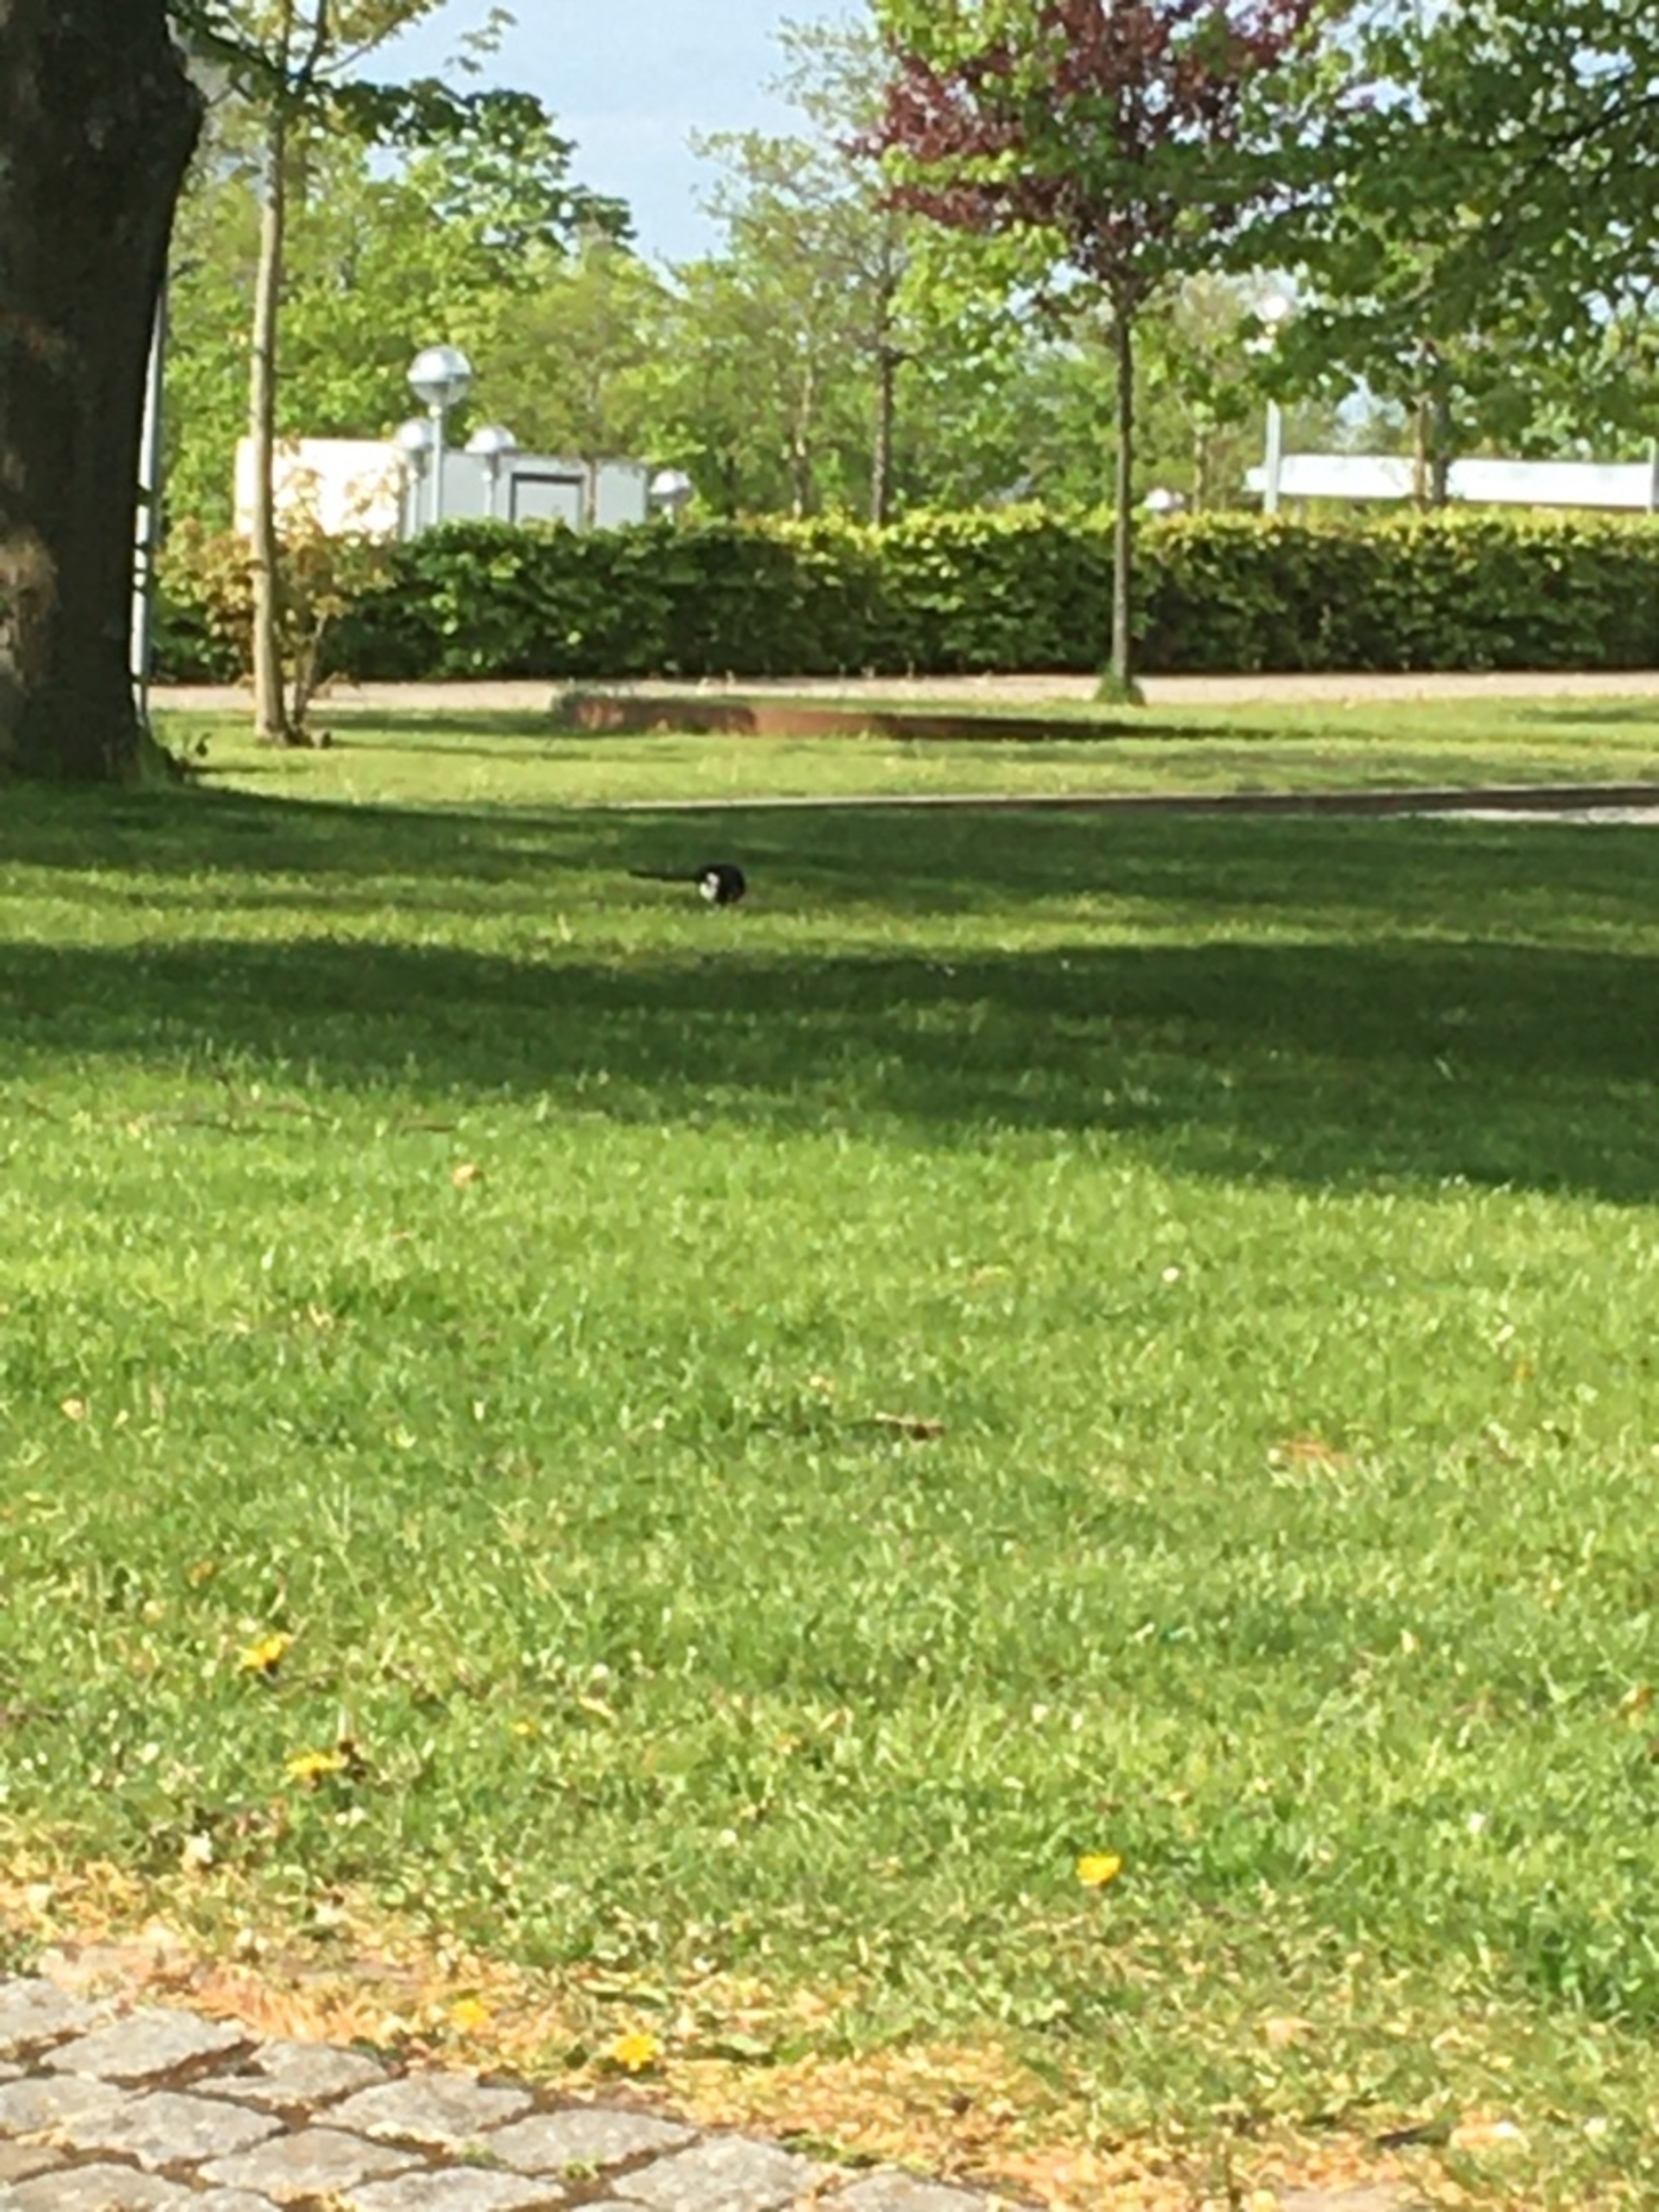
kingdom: Animalia
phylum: Chordata
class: Aves
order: Passeriformes
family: Corvidae
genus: Pica
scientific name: Pica pica
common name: Husskade
